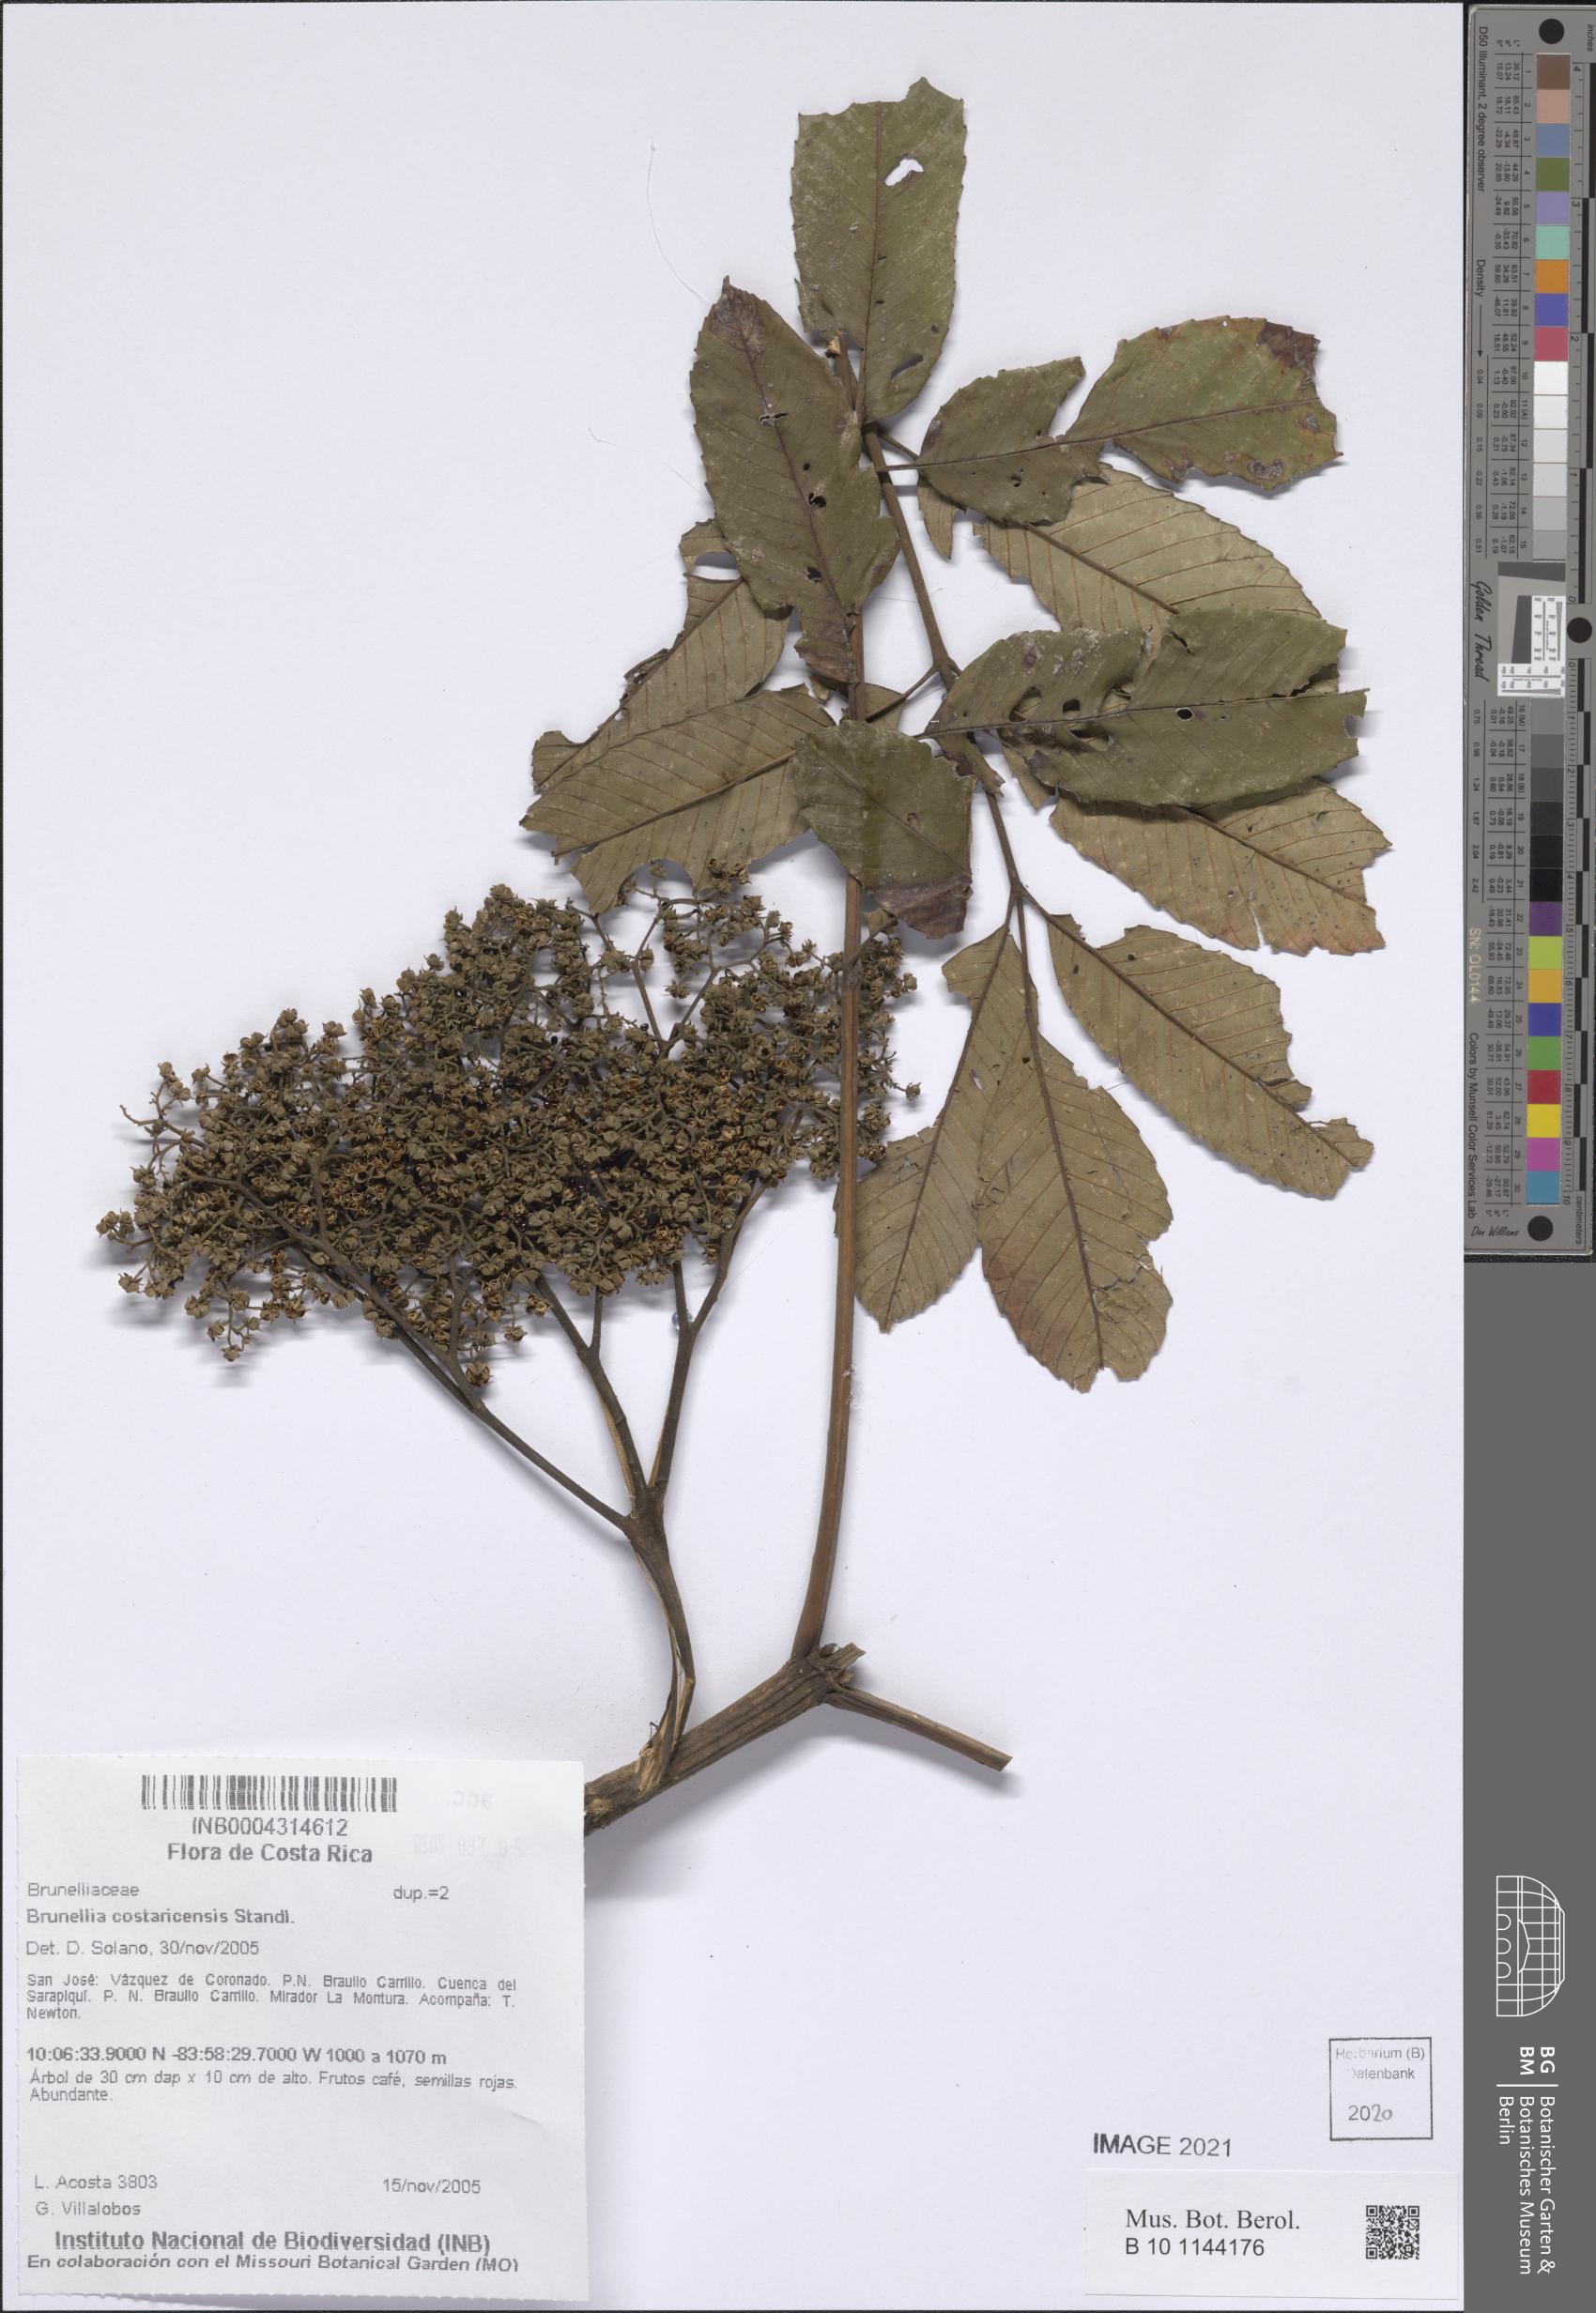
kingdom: Plantae
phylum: Tracheophyta
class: Magnoliopsida
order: Oxalidales
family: Brunelliaceae
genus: Brunellia
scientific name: Brunellia costaricensis
